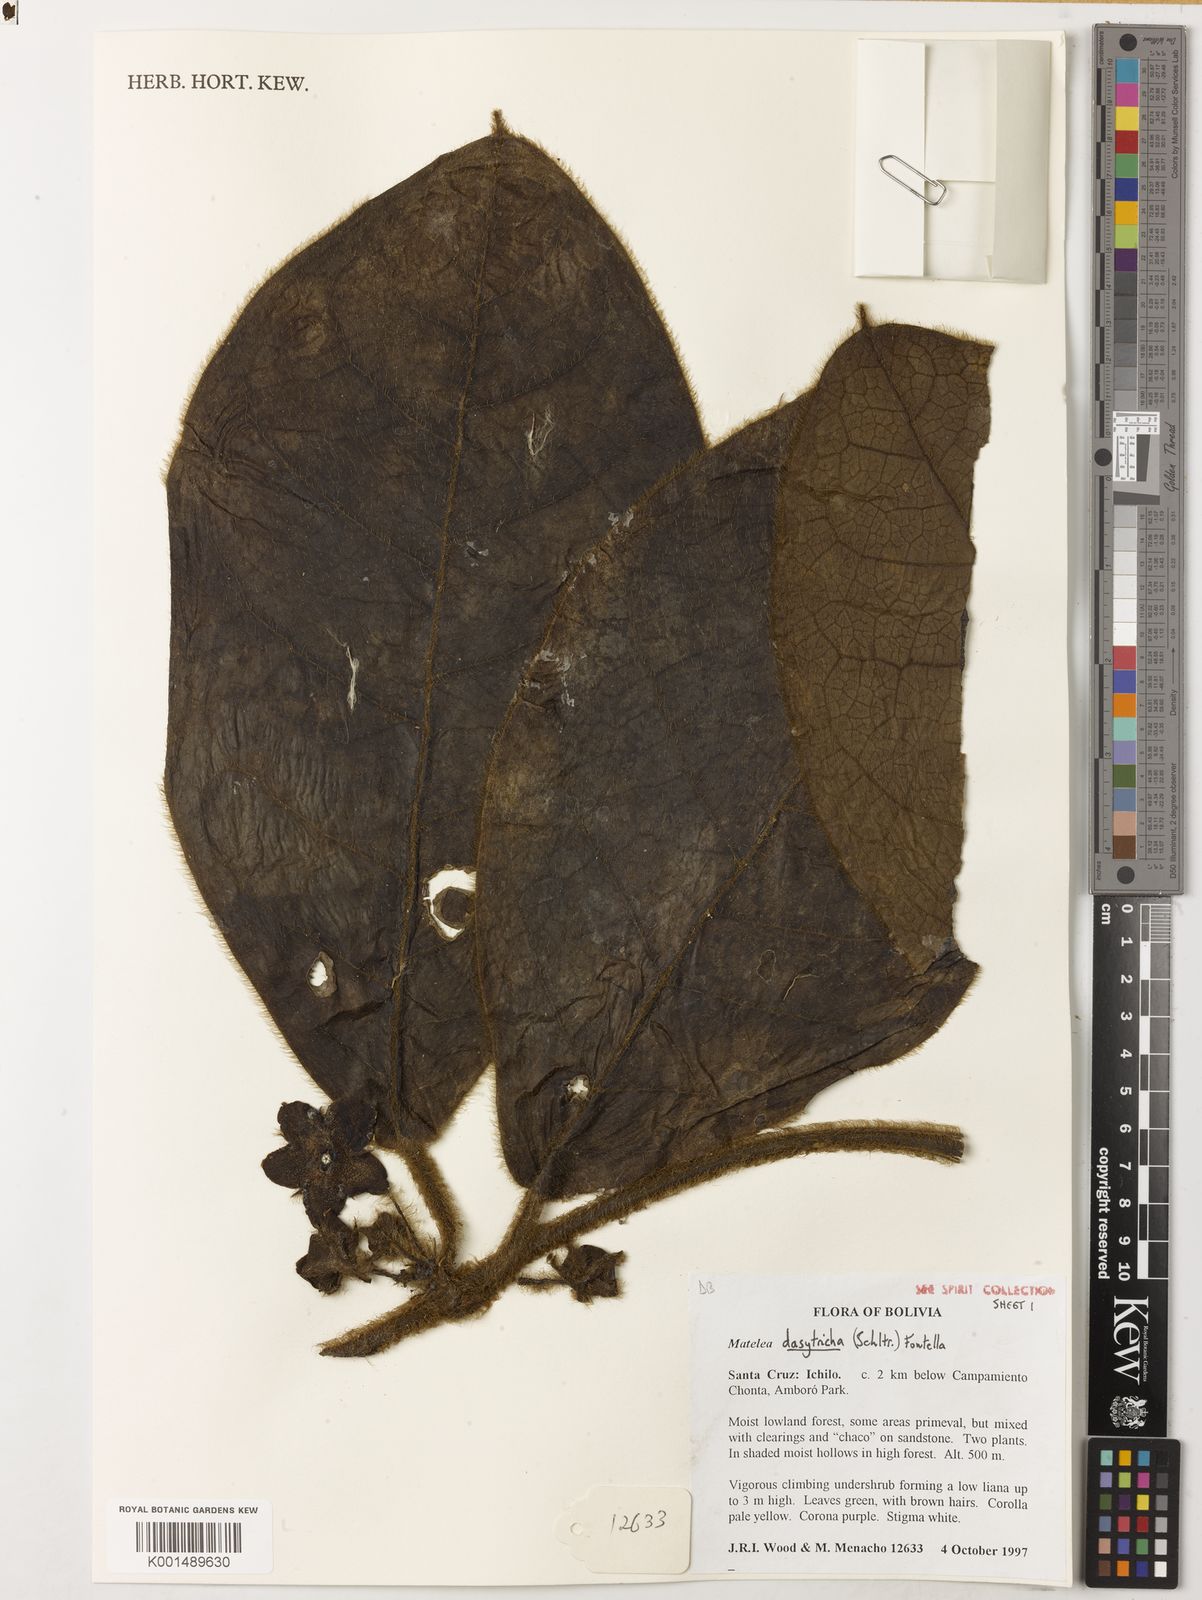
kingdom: Plantae
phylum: Tracheophyta
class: Magnoliopsida
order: Gentianales
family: Apocynaceae
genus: Pruskortizia
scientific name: Pruskortizia dasytricha
